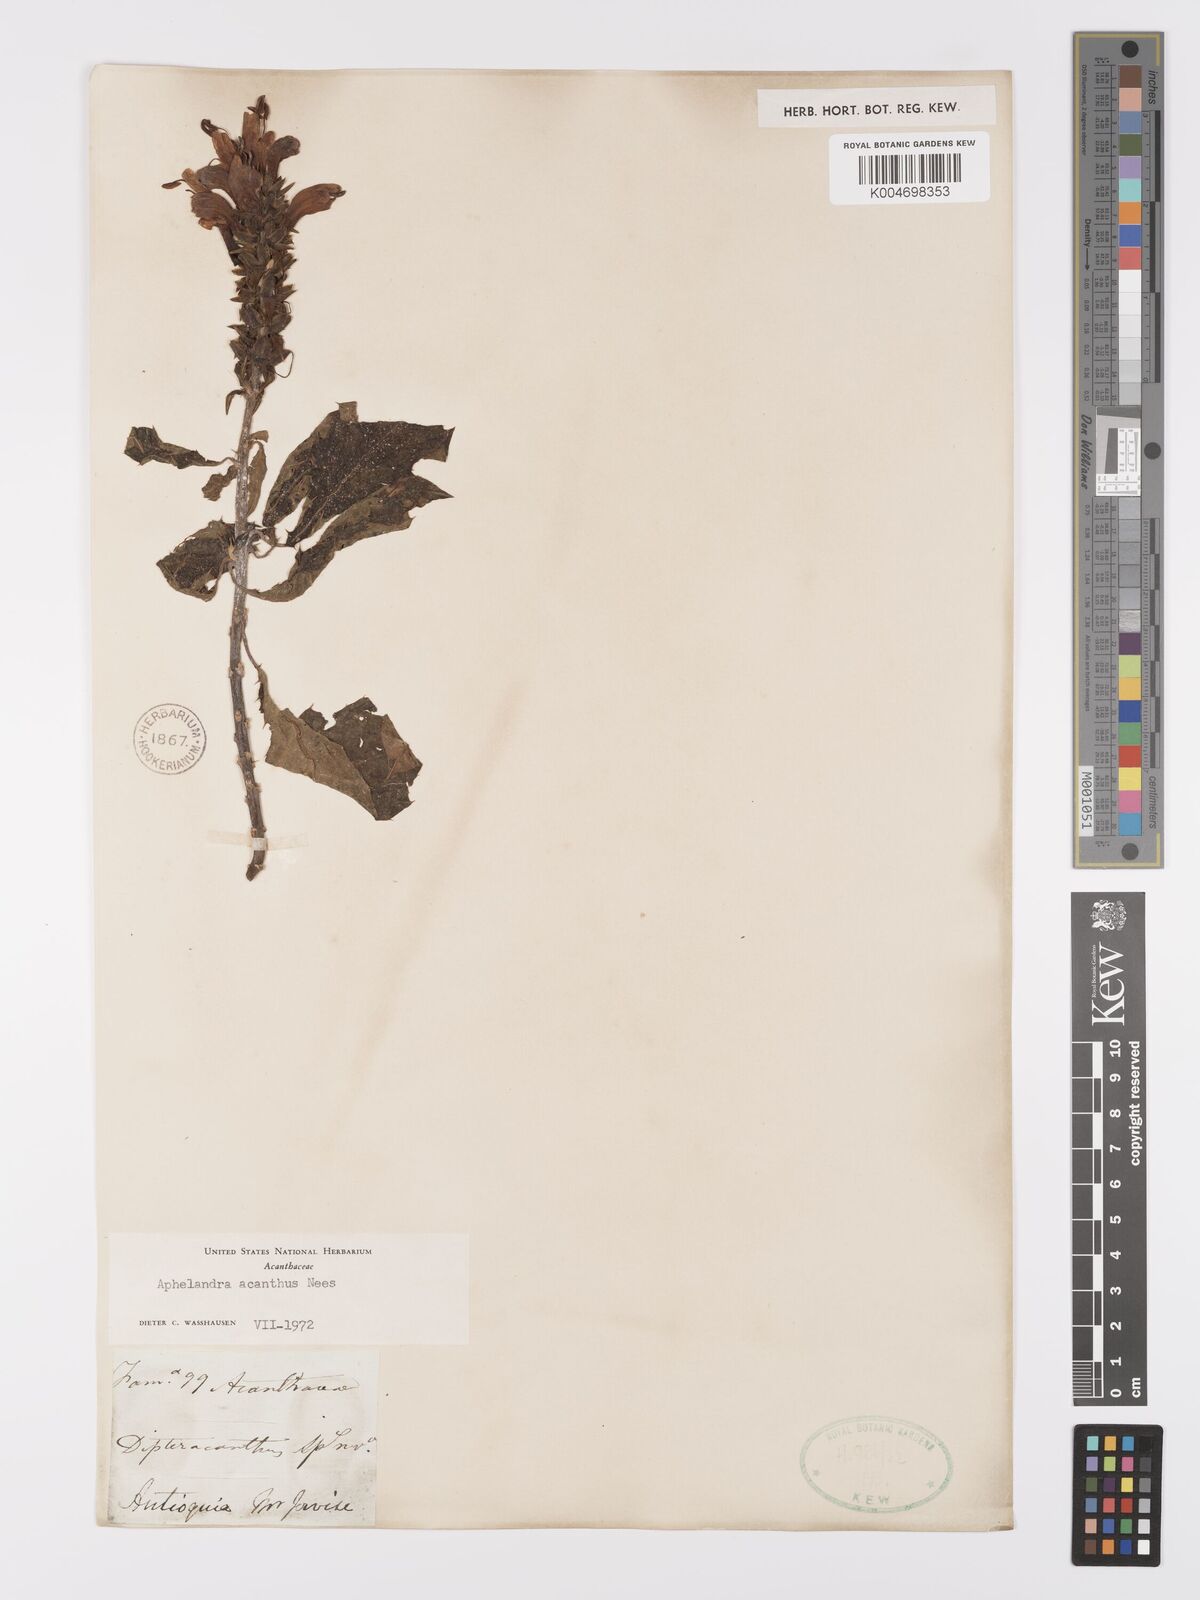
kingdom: Plantae
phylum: Tracheophyta
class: Magnoliopsida
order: Lamiales
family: Acanthaceae
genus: Aphelandra
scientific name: Aphelandra acanthus
